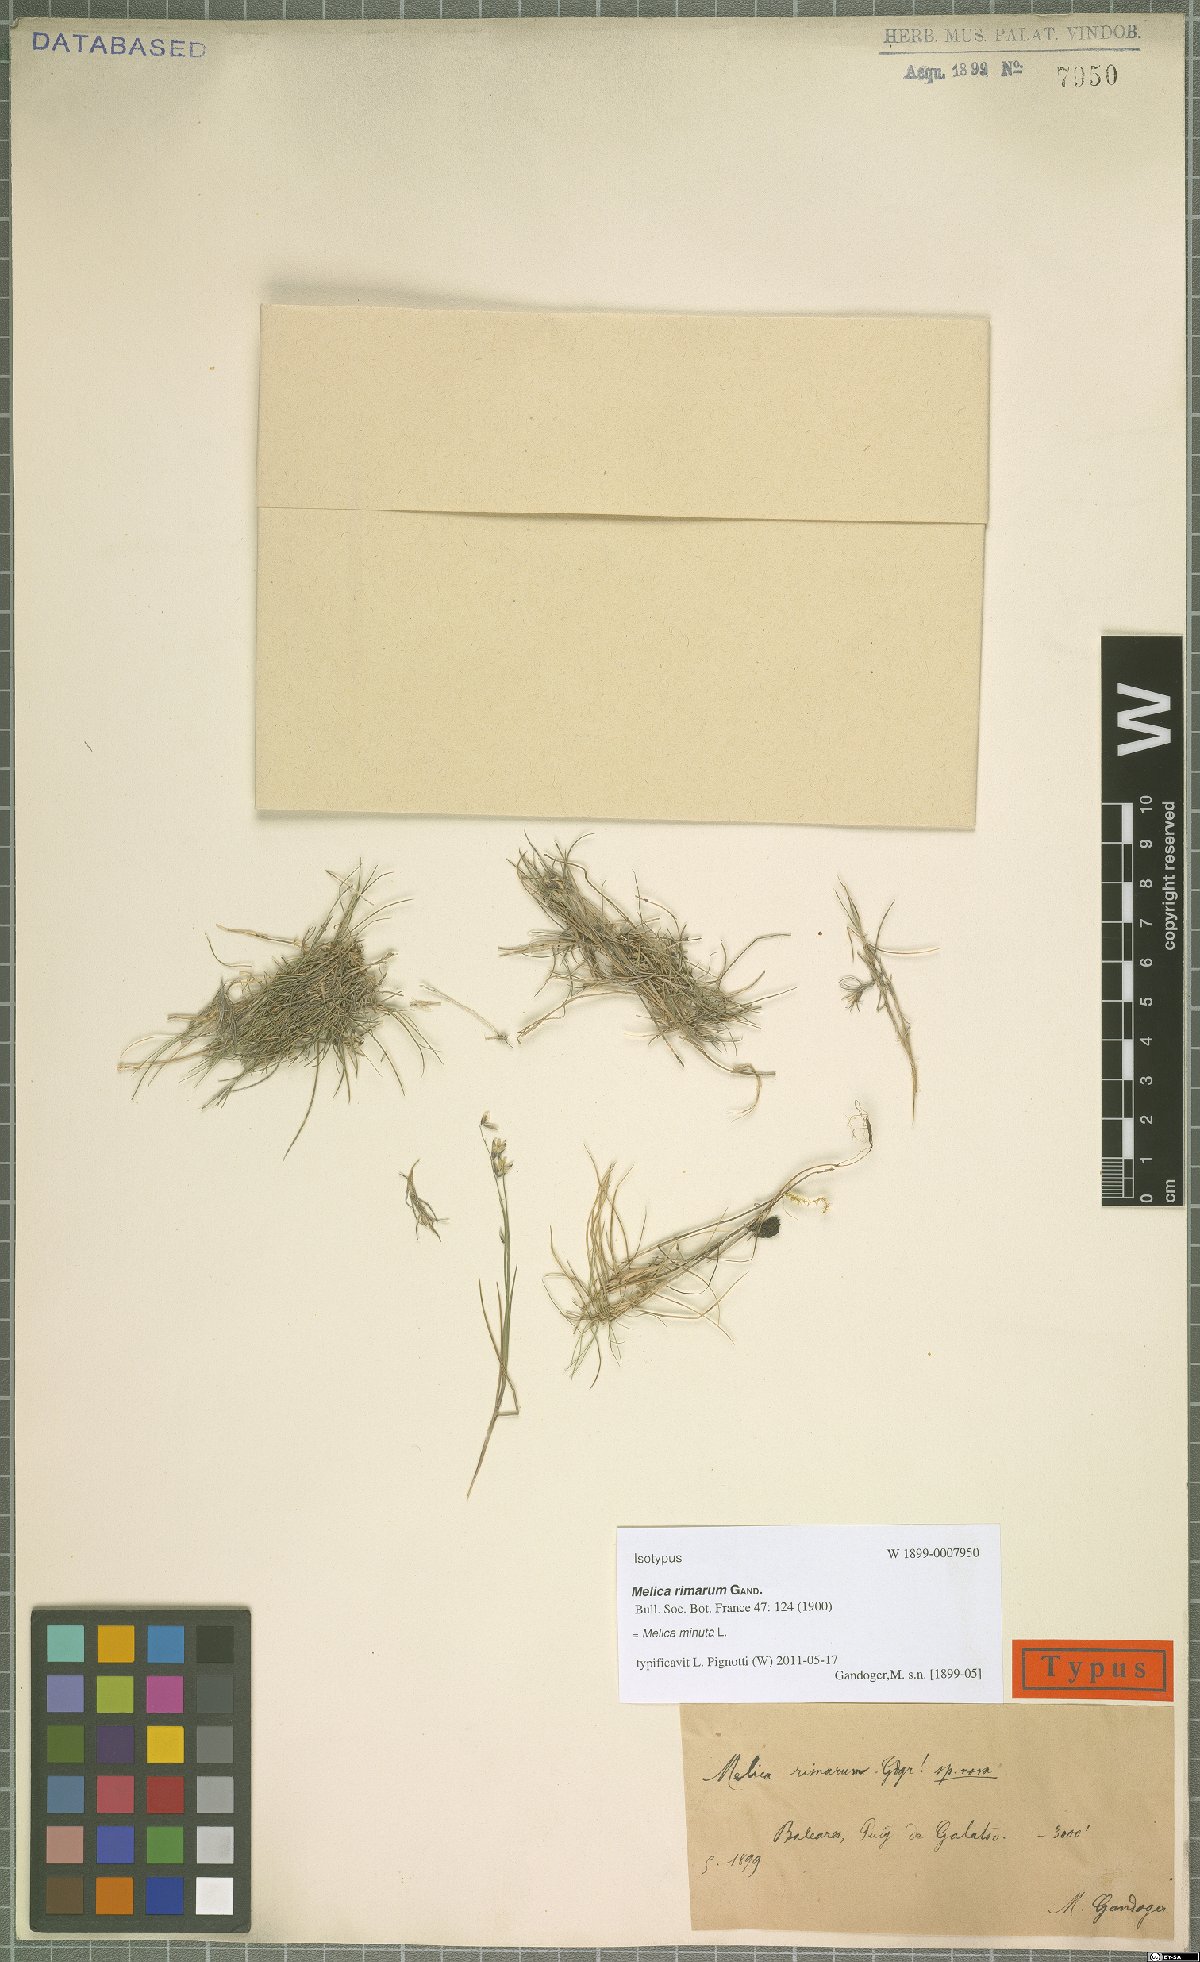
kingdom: Plantae
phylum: Tracheophyta
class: Liliopsida
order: Poales
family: Poaceae
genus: Melica
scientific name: Melica minuta
